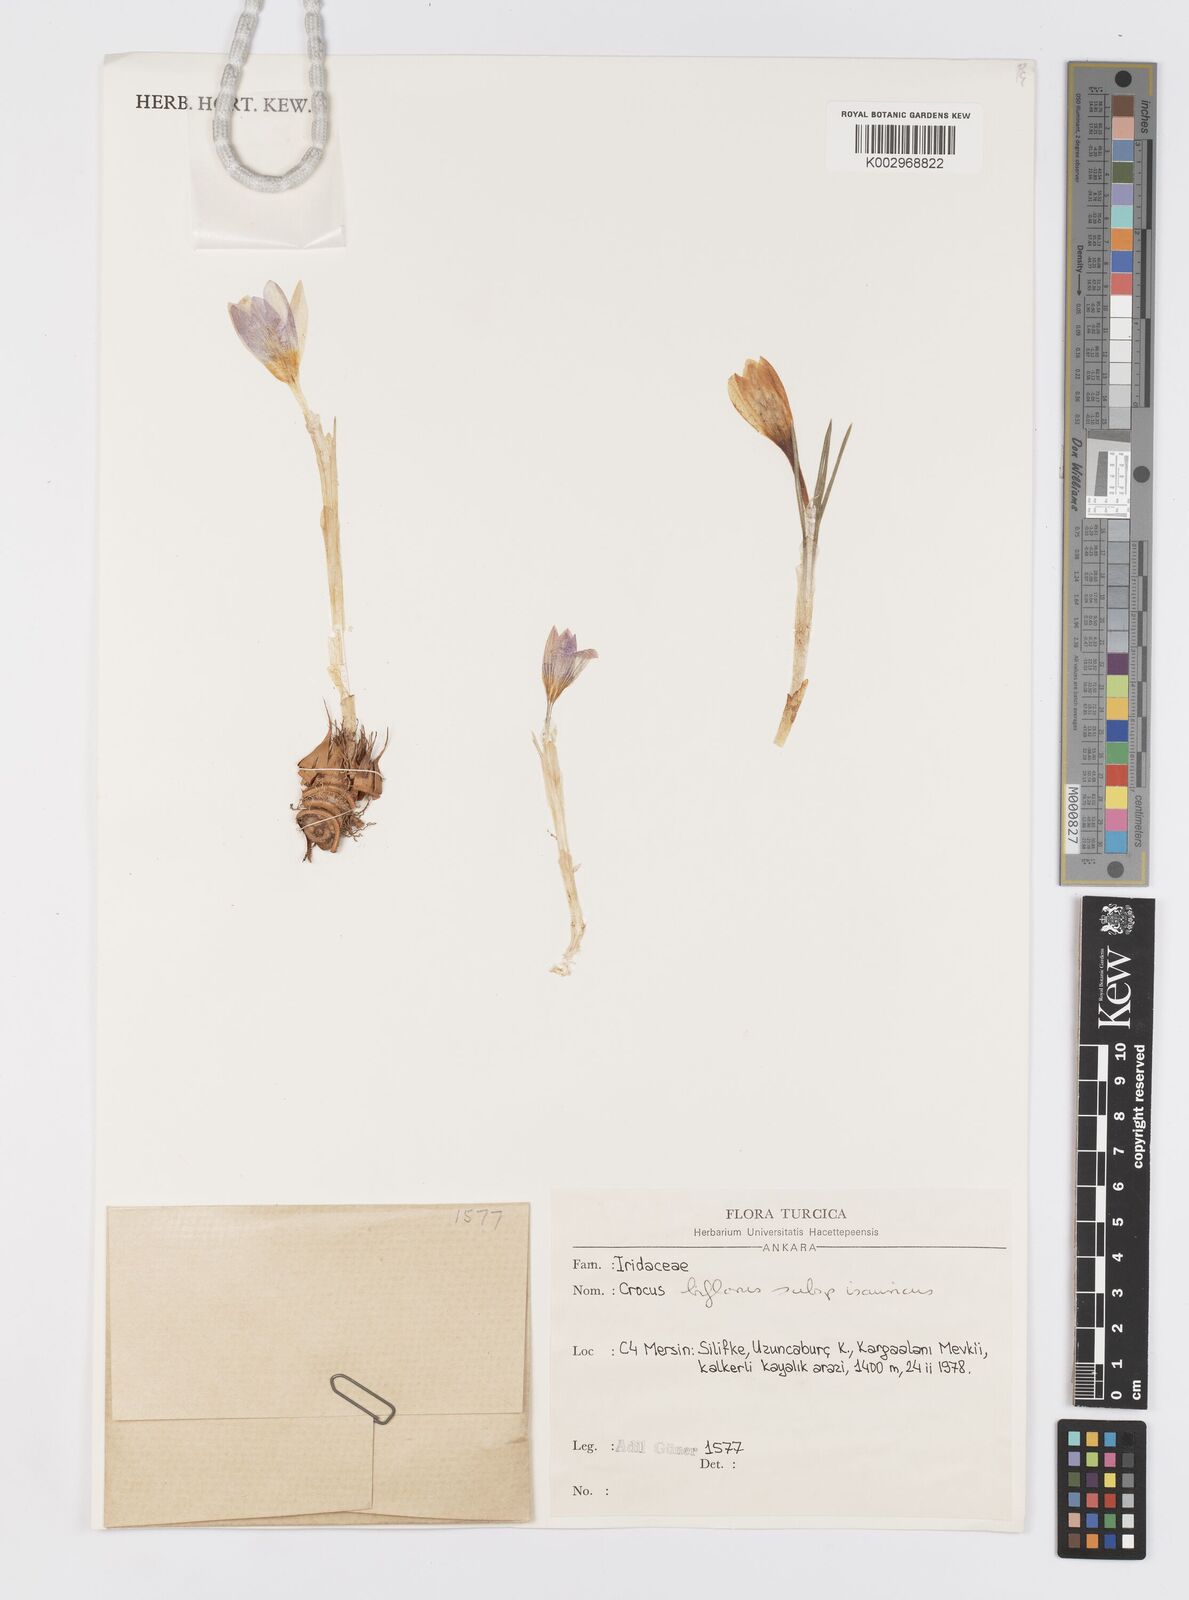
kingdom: Plantae
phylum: Tracheophyta
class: Liliopsida
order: Asparagales
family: Iridaceae
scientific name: Iridaceae
